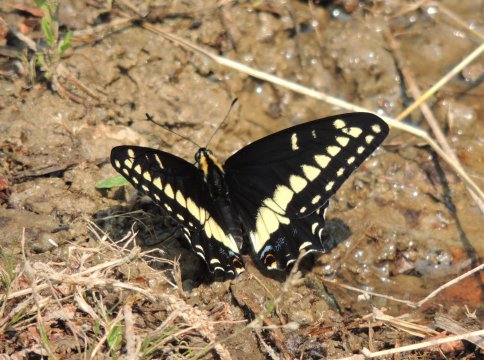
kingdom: Animalia
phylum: Arthropoda
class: Insecta
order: Lepidoptera
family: Papilionidae
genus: Papilio
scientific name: Papilio indra
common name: Indra Swallowtail
